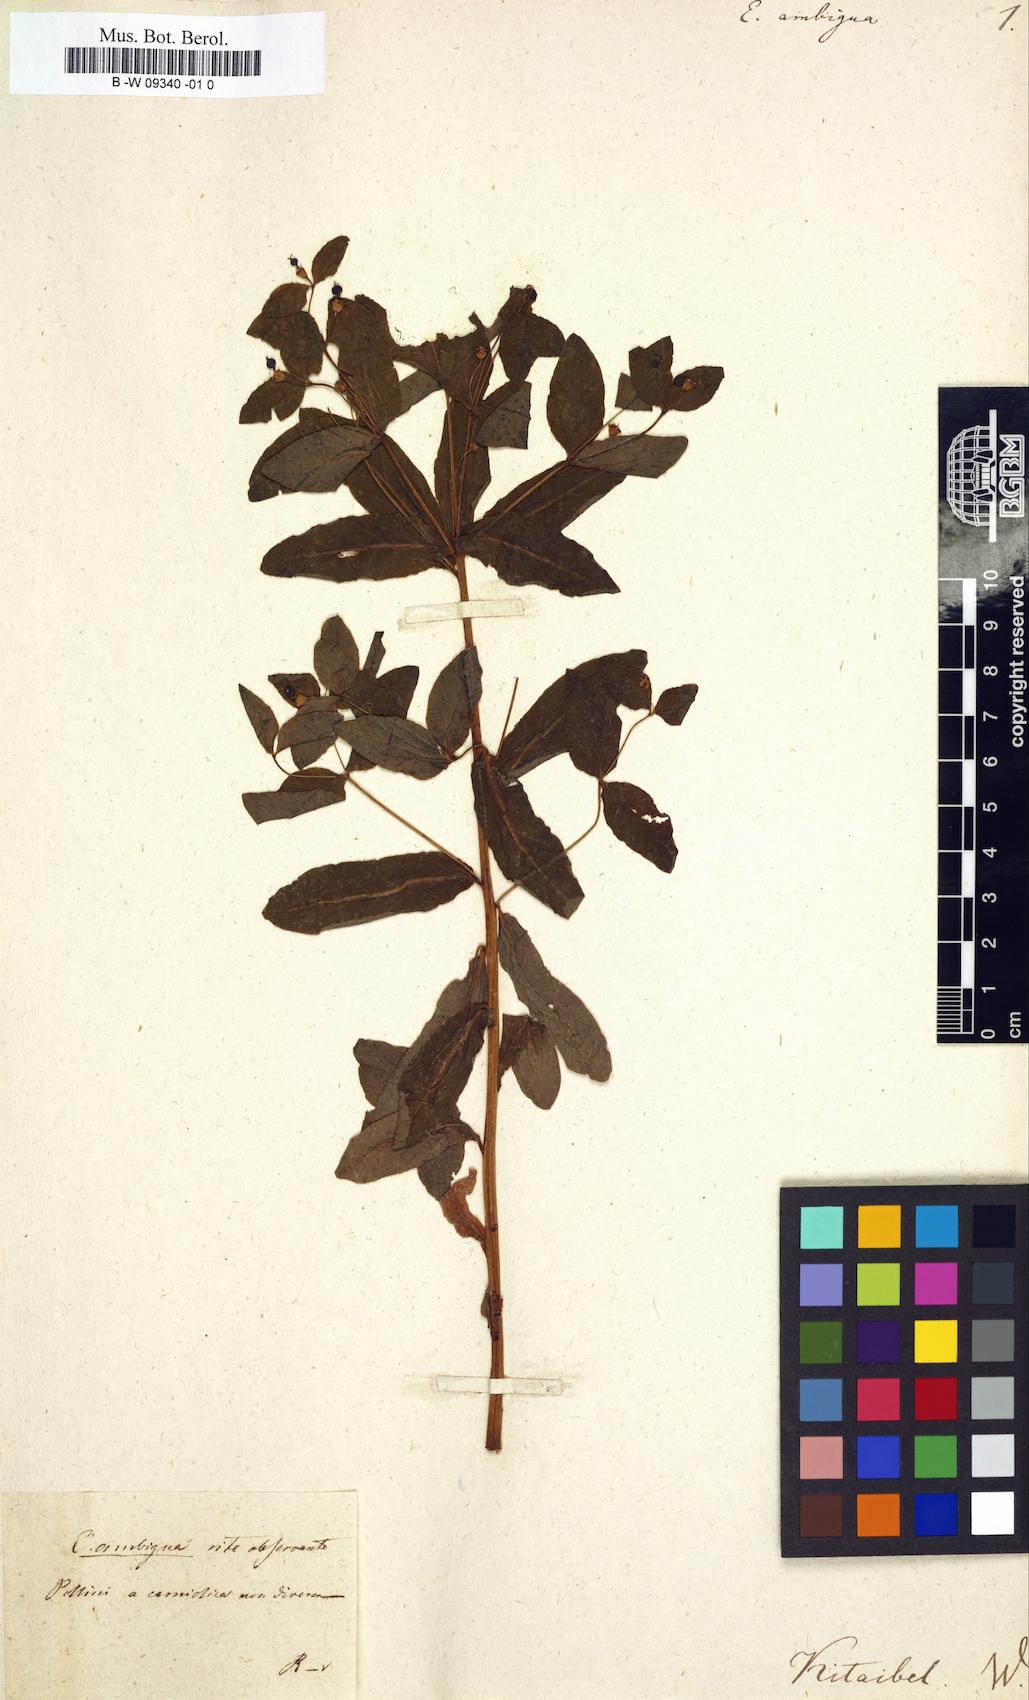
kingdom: Plantae
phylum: Tracheophyta
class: Magnoliopsida
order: Malpighiales
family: Euphorbiaceae
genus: Euphorbia
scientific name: Euphorbia carniolica
